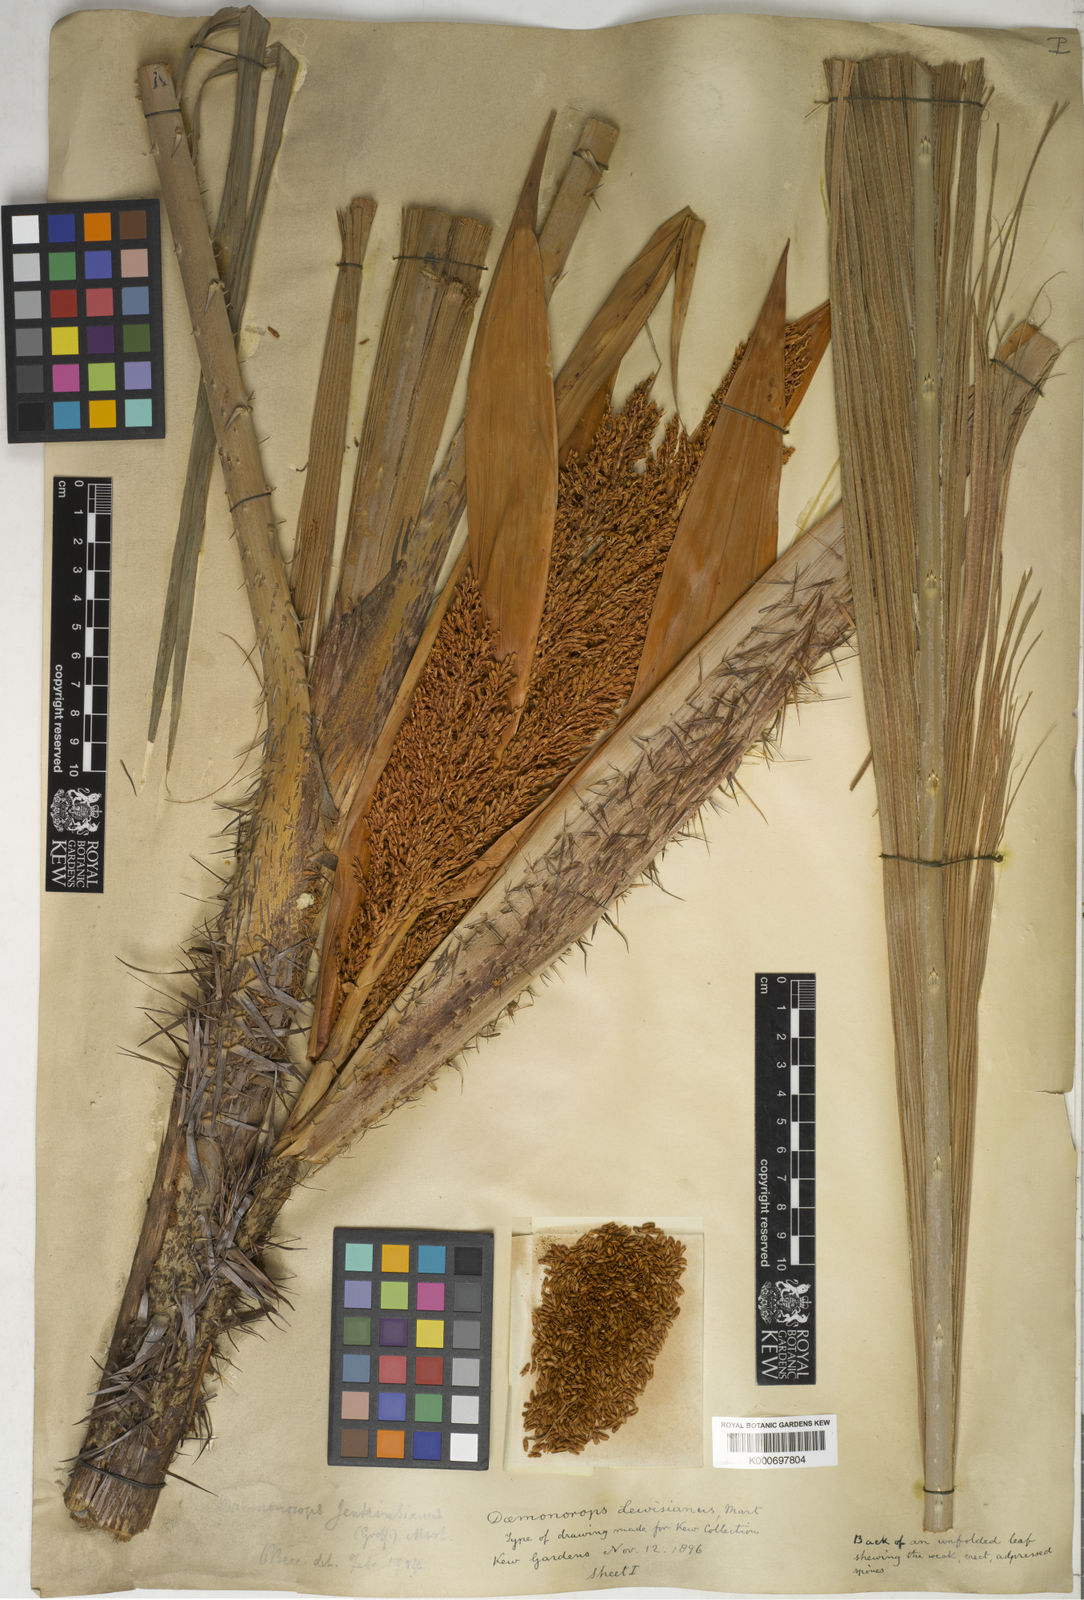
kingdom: Plantae
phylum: Tracheophyta
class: Liliopsida
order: Arecales
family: Arecaceae
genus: Calamus
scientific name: Calamus melanochaetes
